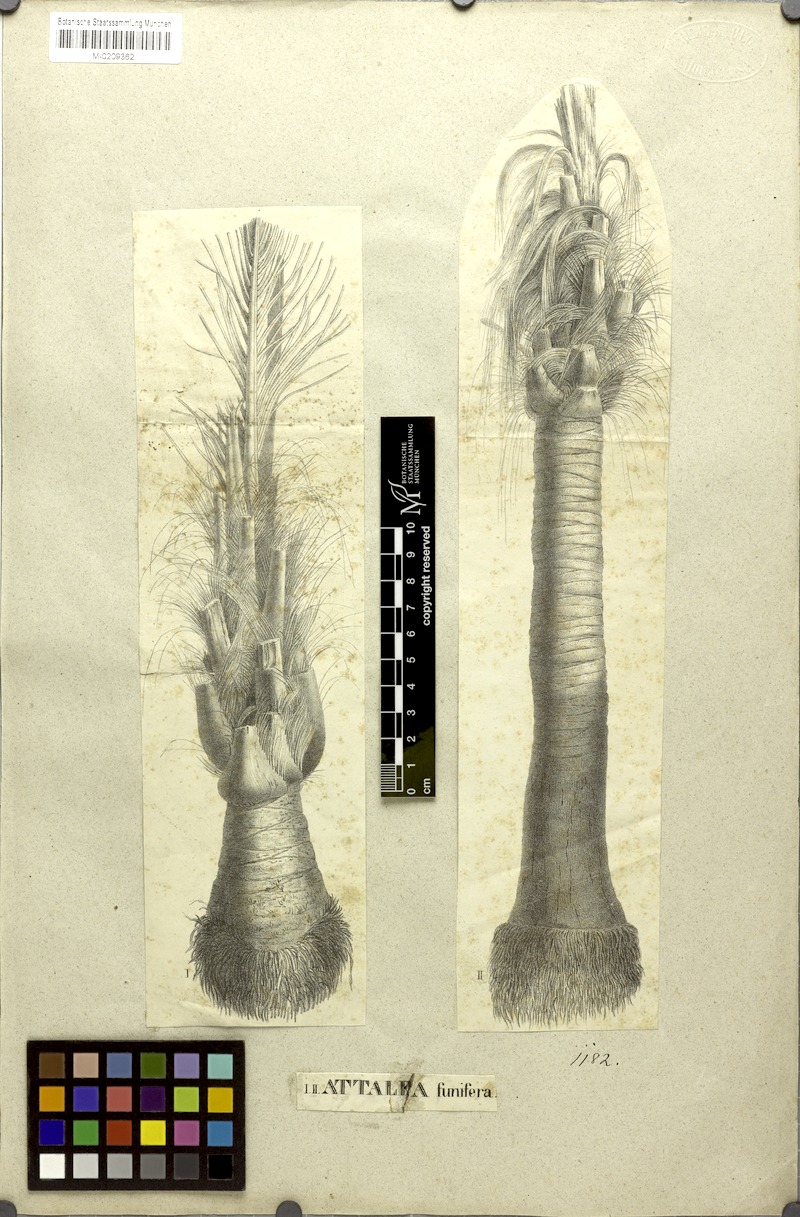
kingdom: Plantae
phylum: Tracheophyta
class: Liliopsida
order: Arecales
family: Arecaceae
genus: Attalea
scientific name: Attalea funifera
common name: Piassava palm
